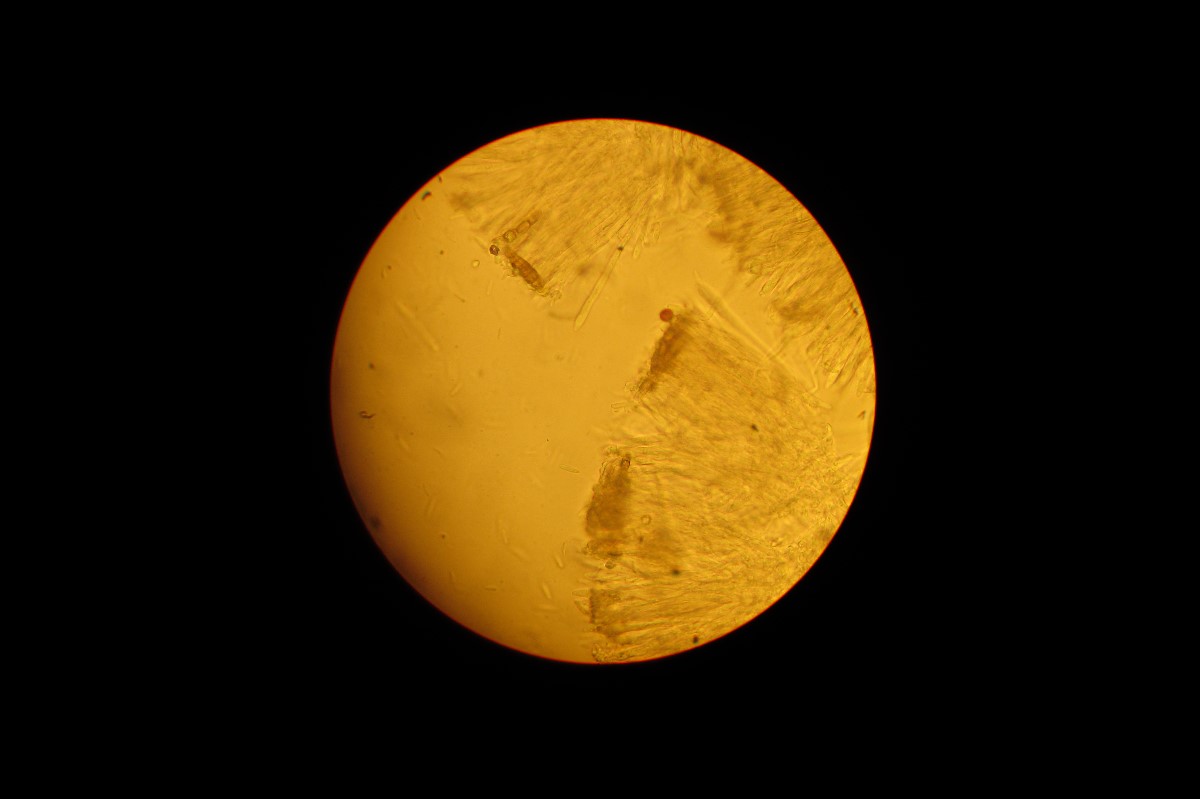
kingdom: Fungi
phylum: Ascomycota
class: Leotiomycetes
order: Helotiales
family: Mollisiaceae
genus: Mollisia
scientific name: Mollisia hydrophila
